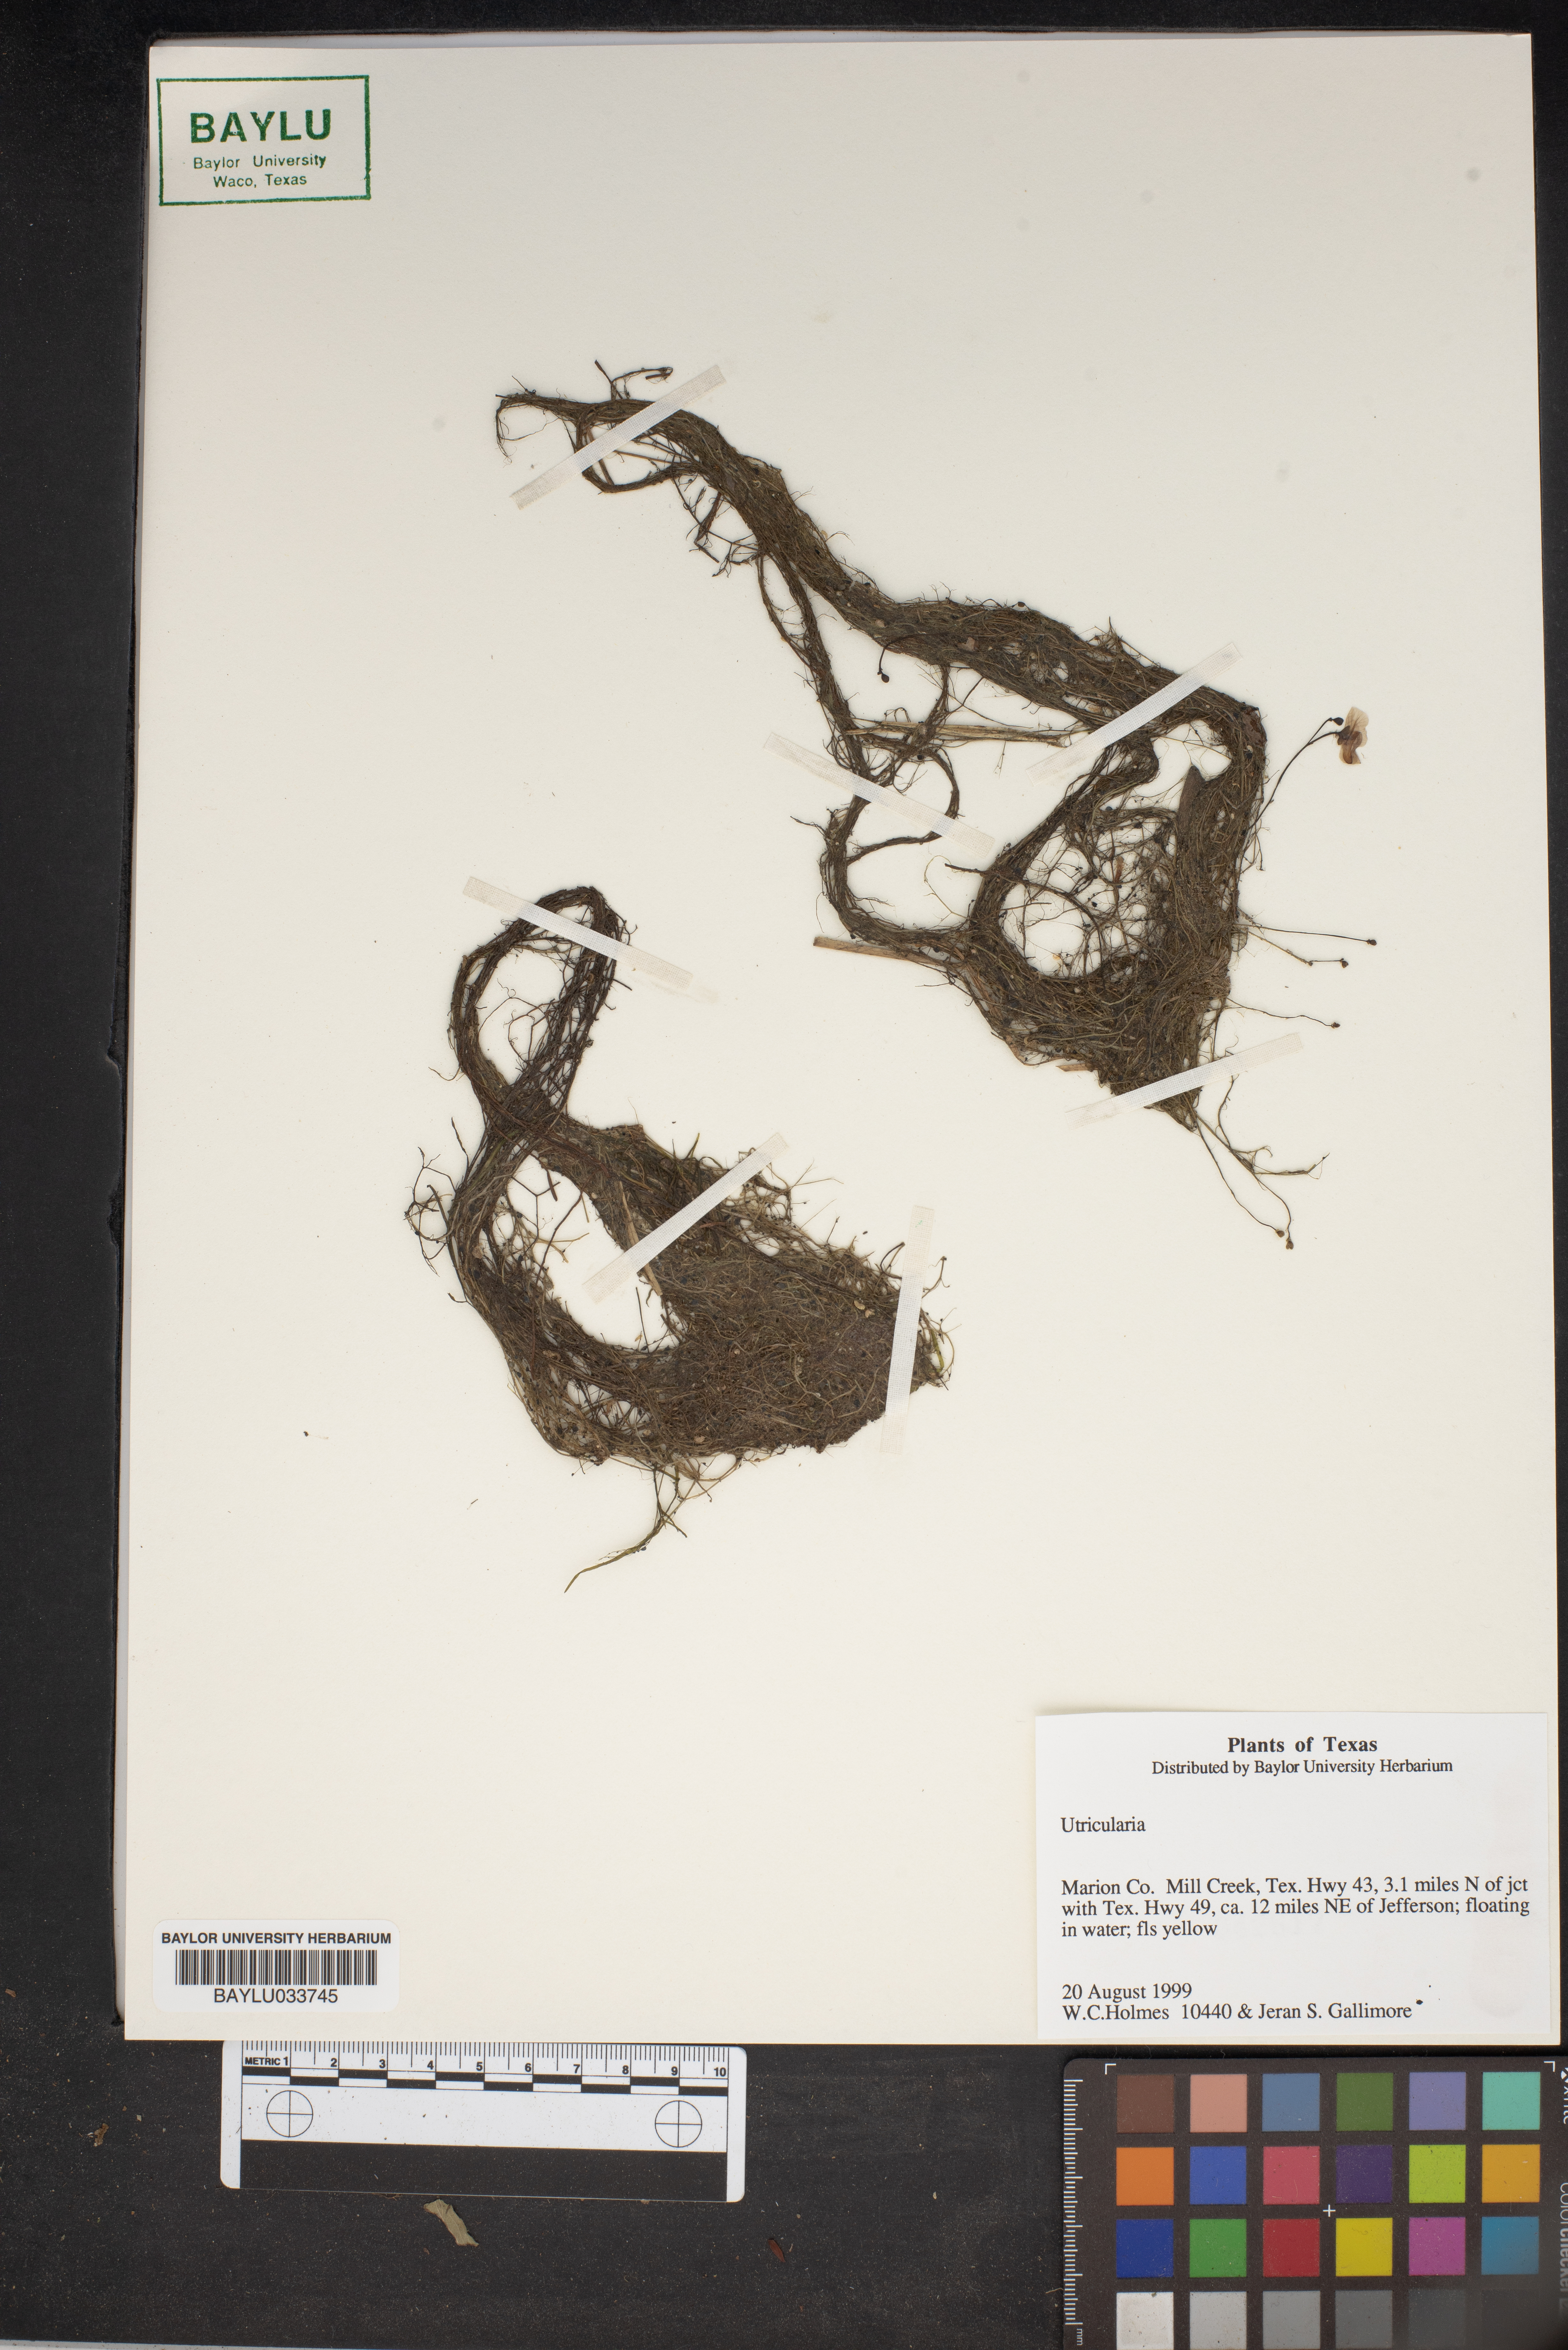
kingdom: Plantae
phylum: Tracheophyta
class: Magnoliopsida
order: Lamiales
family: Lentibulariaceae
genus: Utricularia
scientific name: Utricularia
